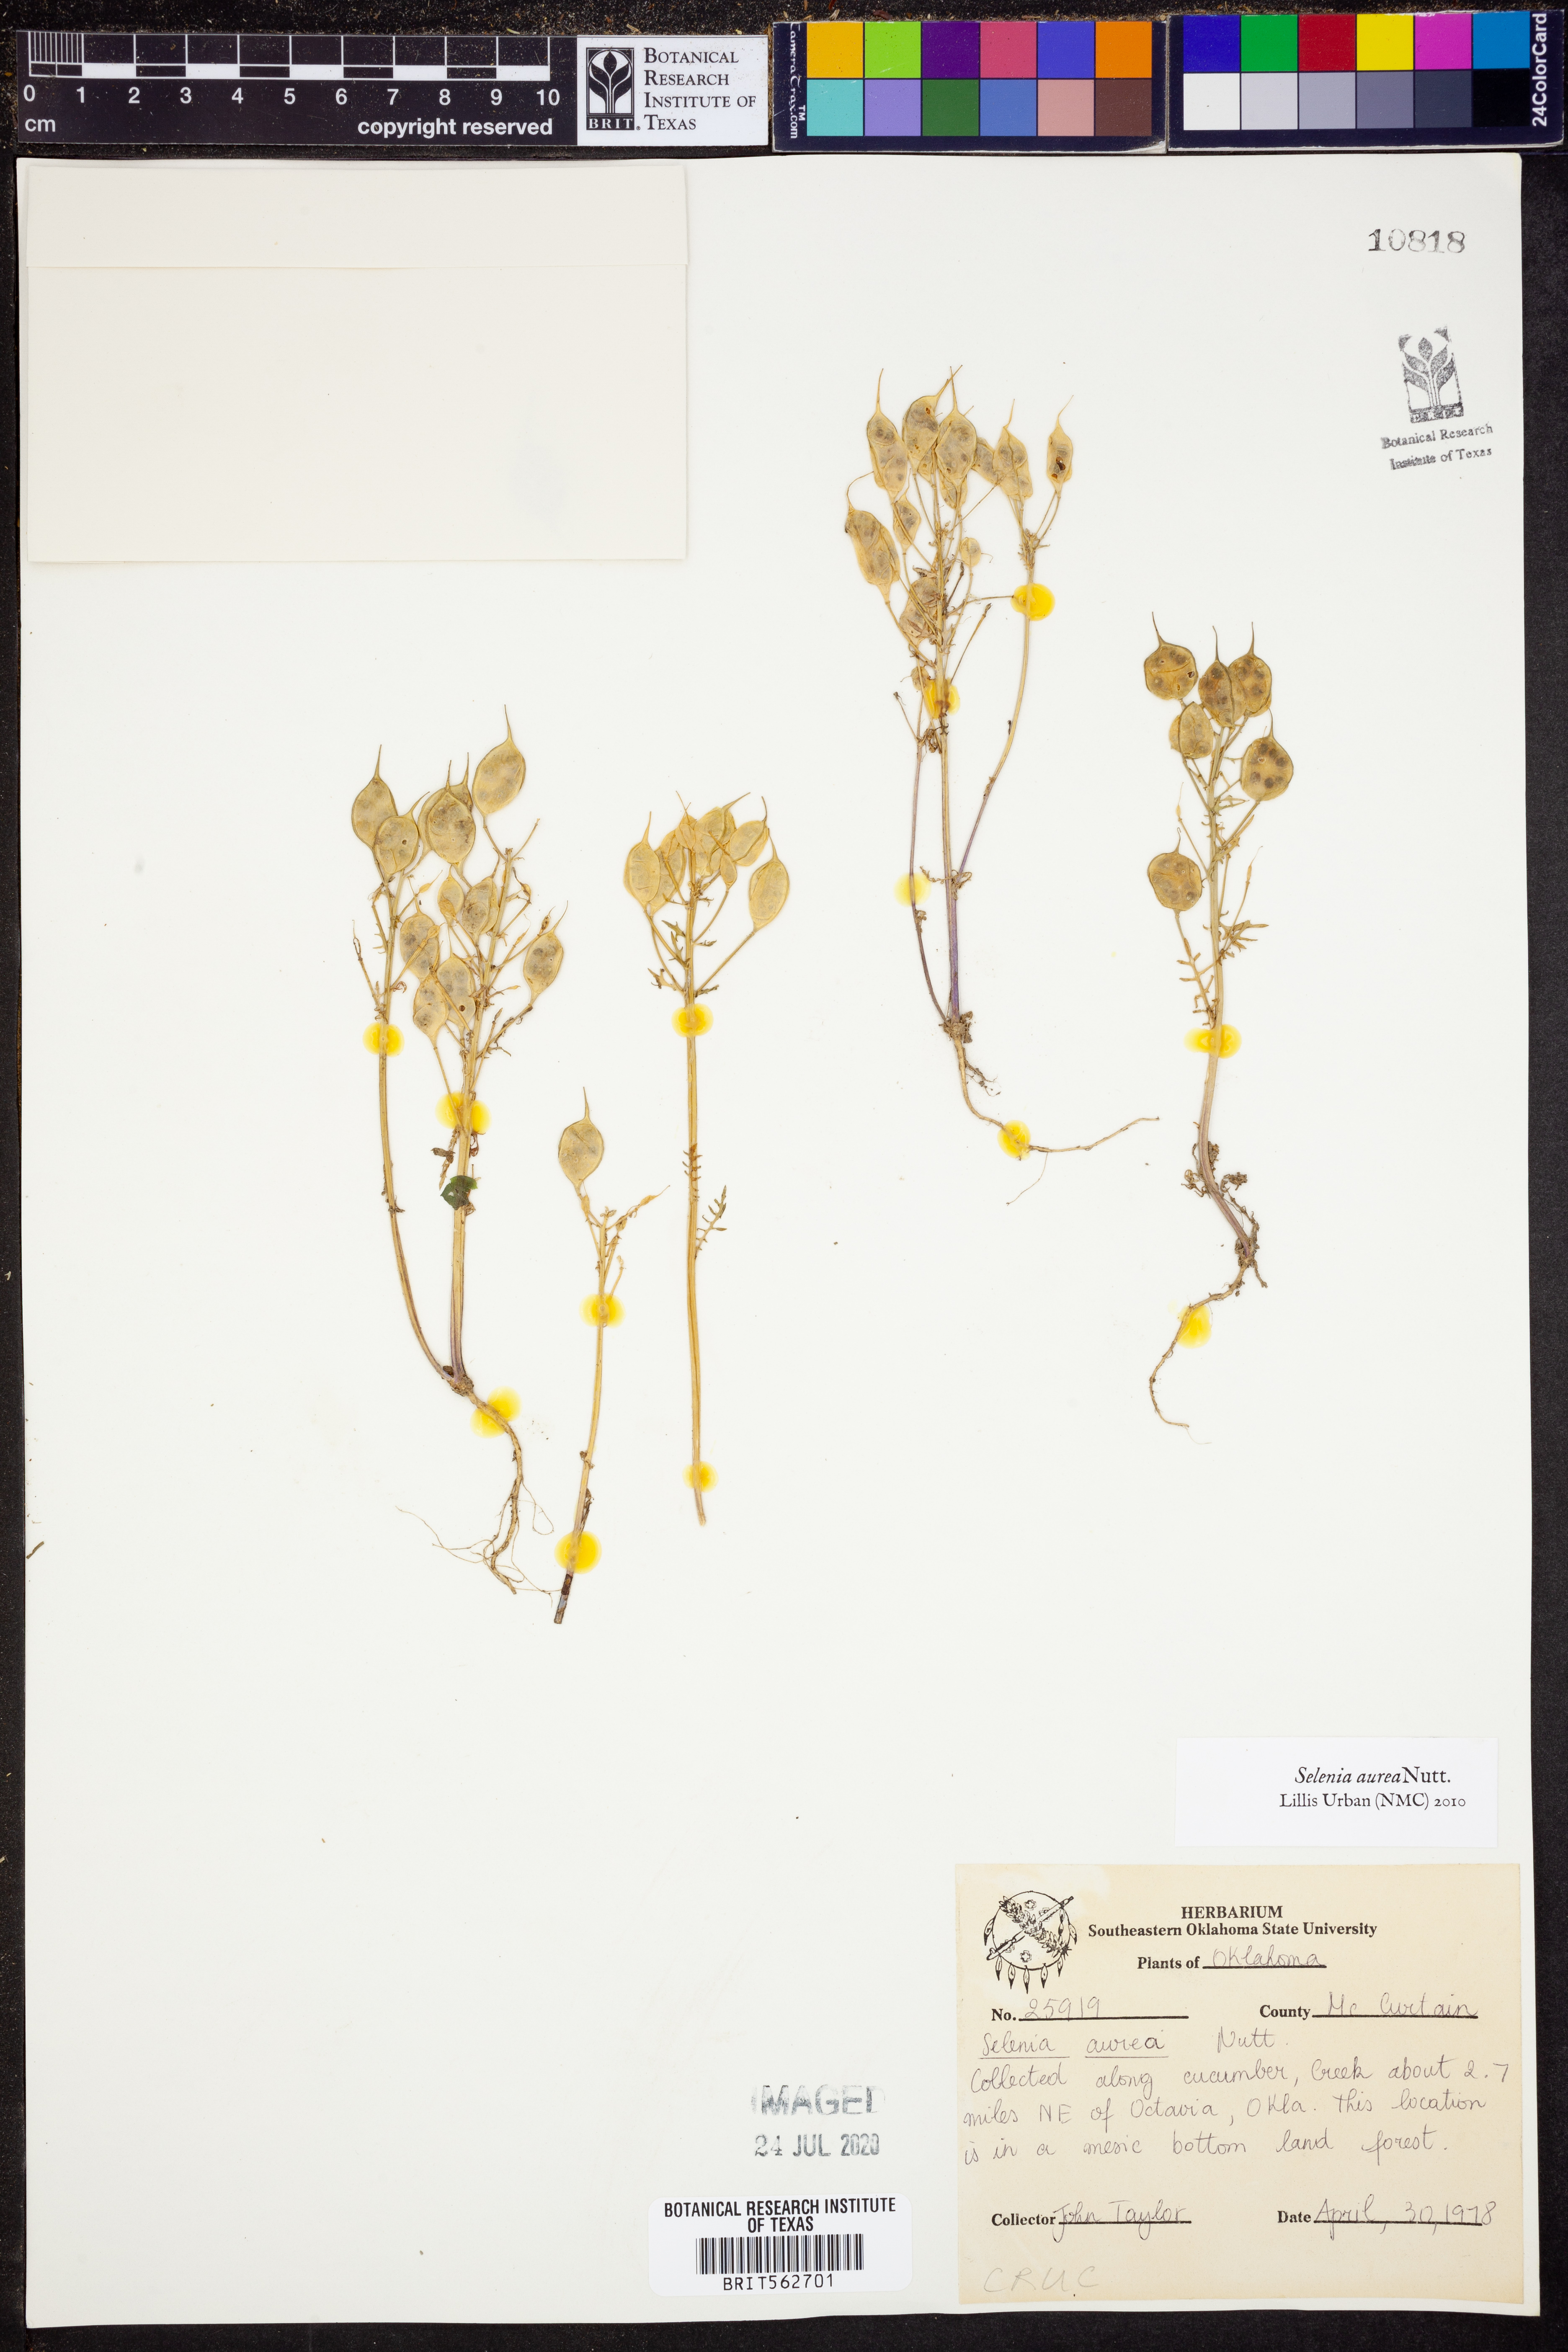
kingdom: Plantae
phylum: Tracheophyta
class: Magnoliopsida
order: Brassicales
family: Brassicaceae
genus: Selenia
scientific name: Selenia aurea
